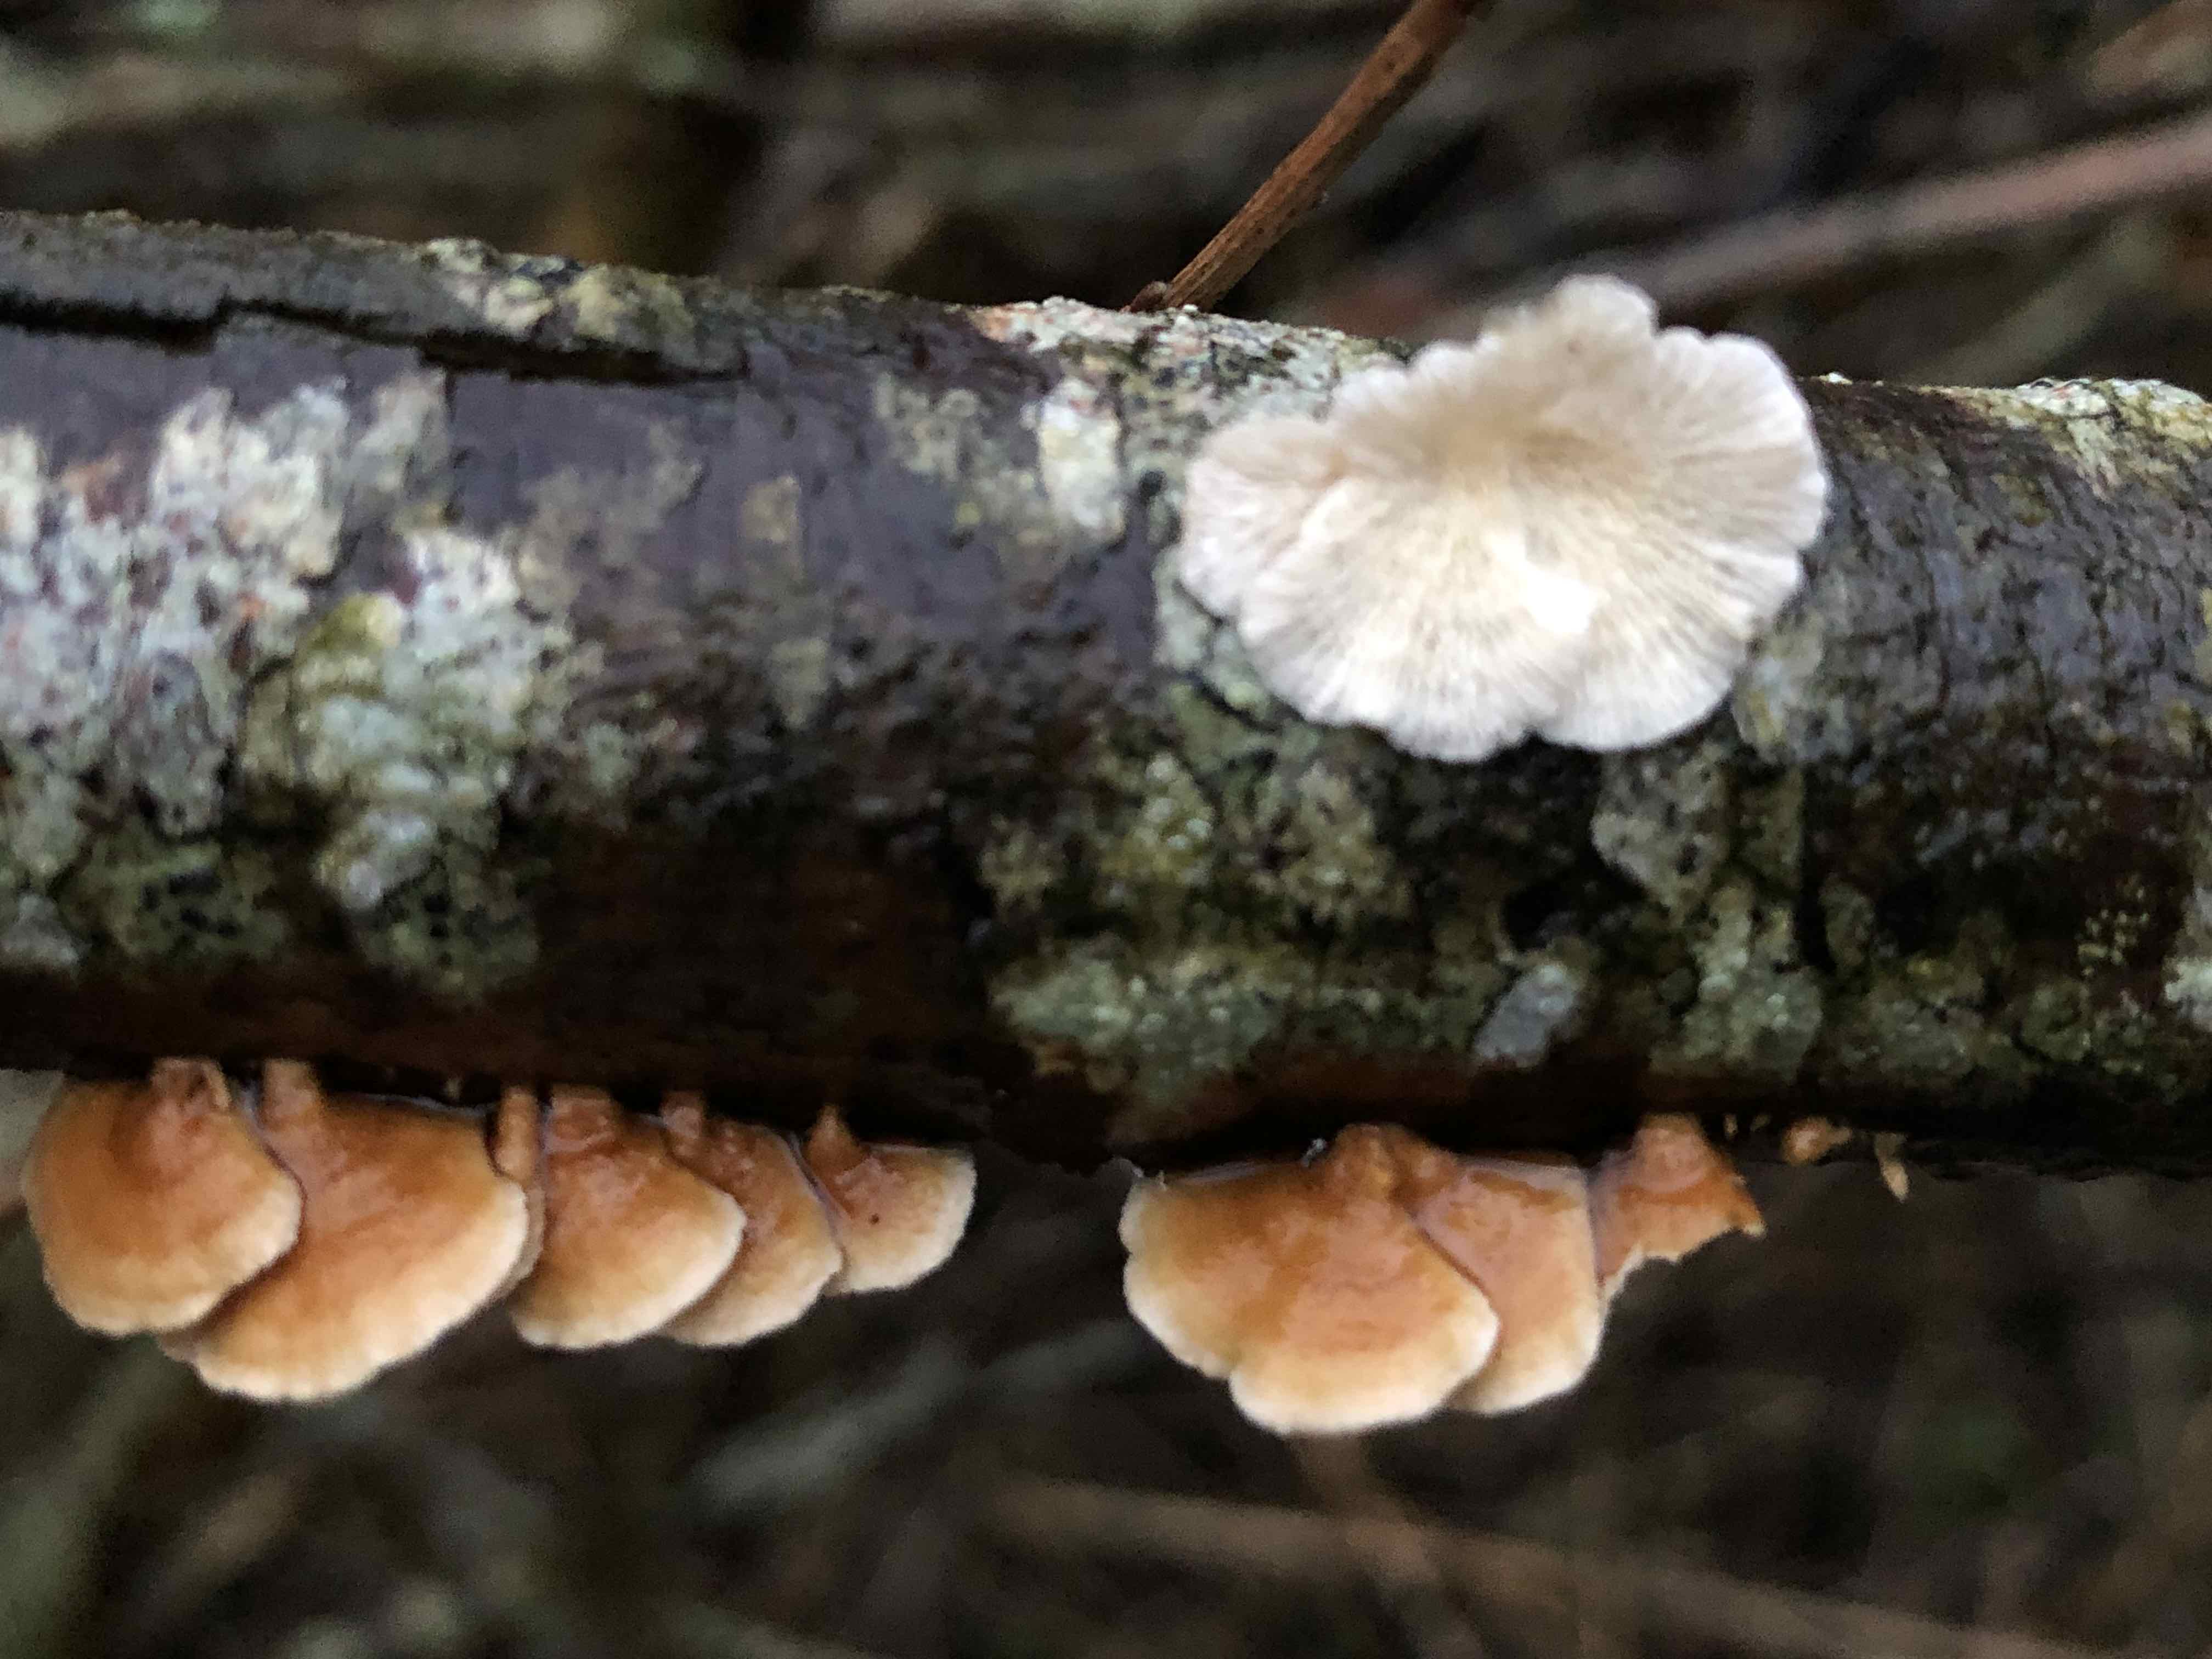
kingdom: Fungi
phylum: Basidiomycota
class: Agaricomycetes
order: Amylocorticiales
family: Amylocorticiaceae
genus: Plicaturopsis
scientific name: Plicaturopsis crispa
